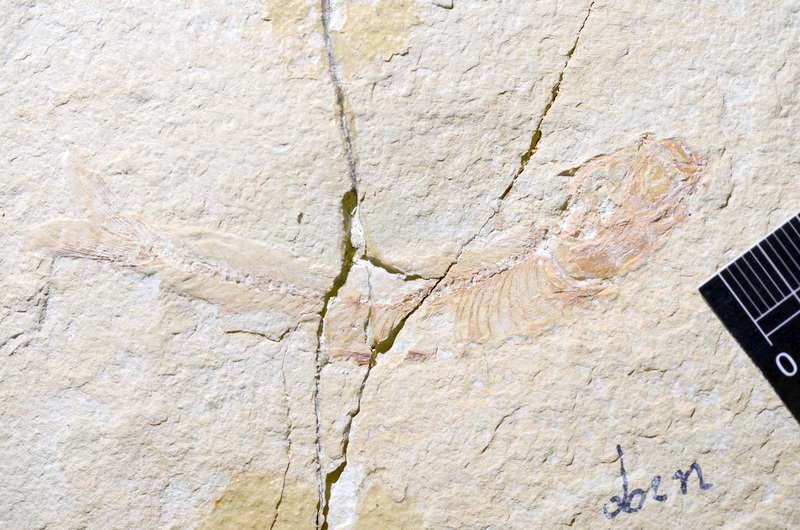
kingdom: Animalia
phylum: Chordata
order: Salmoniformes
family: Orthogonikleithridae
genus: Leptolepides
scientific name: Leptolepides
